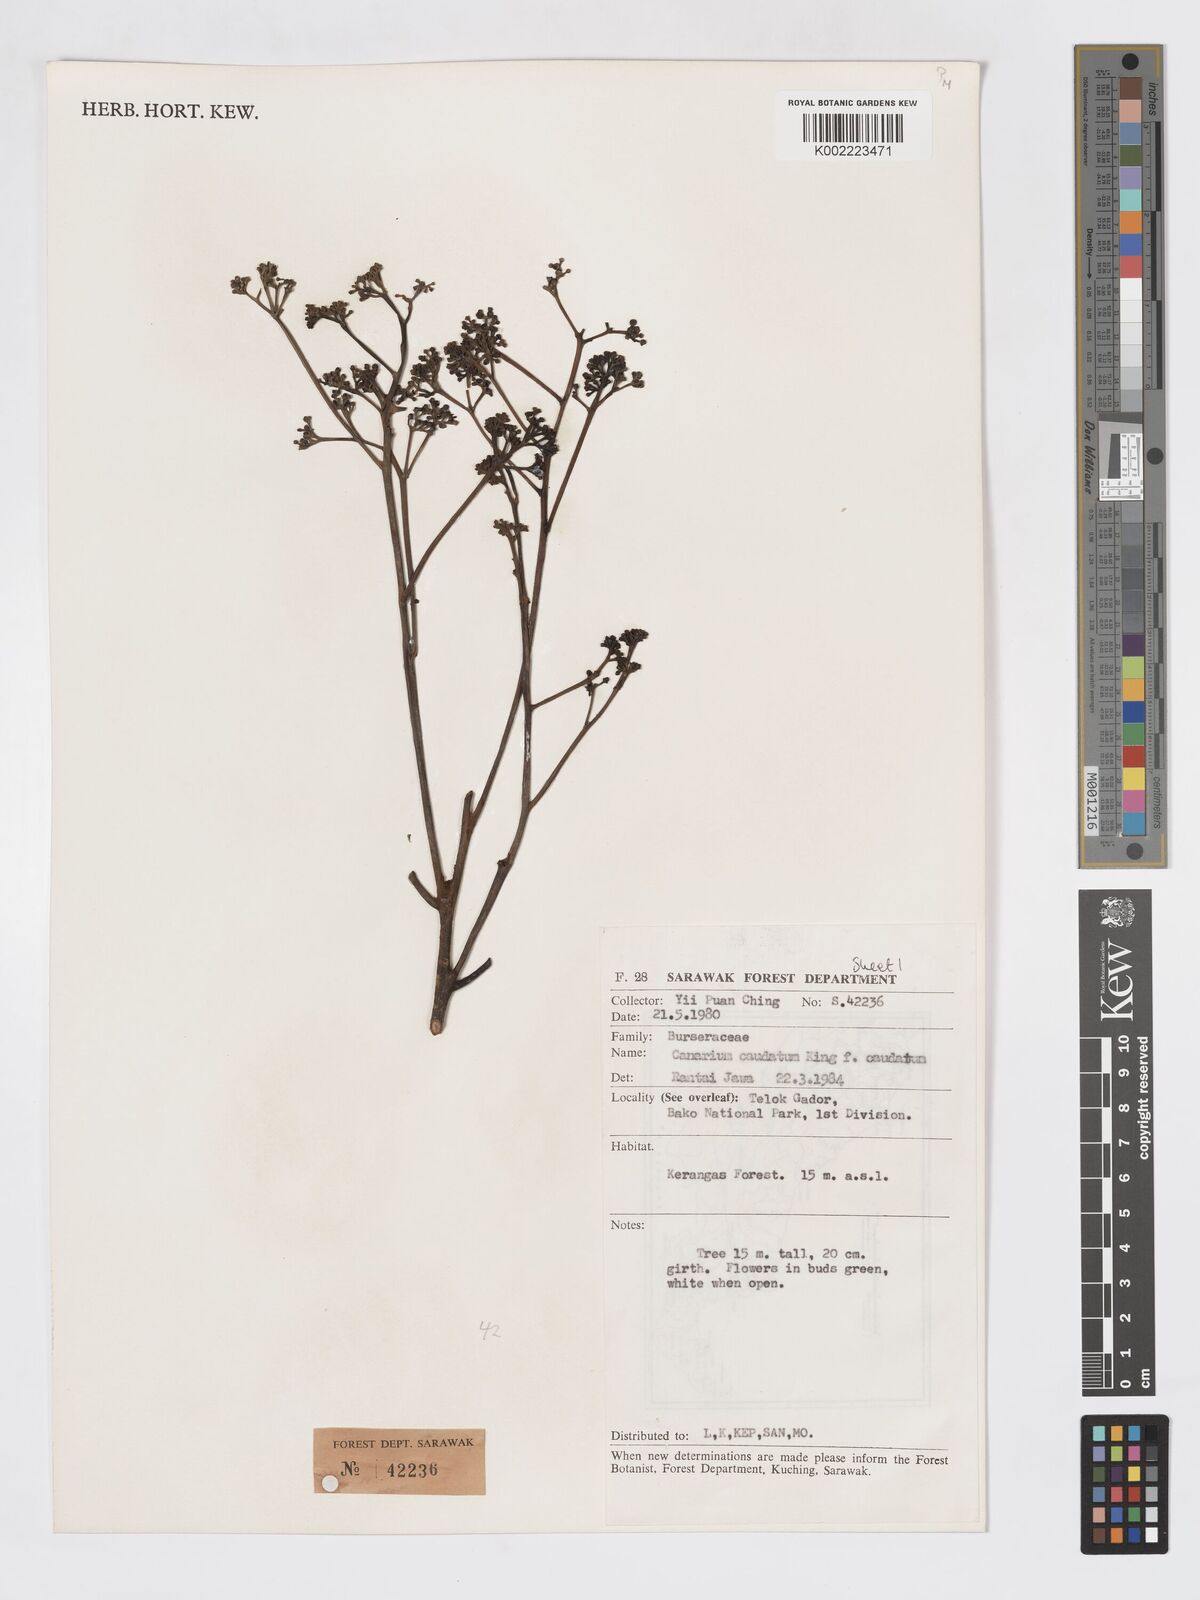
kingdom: Plantae
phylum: Tracheophyta
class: Magnoliopsida
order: Sapindales
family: Burseraceae
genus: Canarium
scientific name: Canarium caudatum
